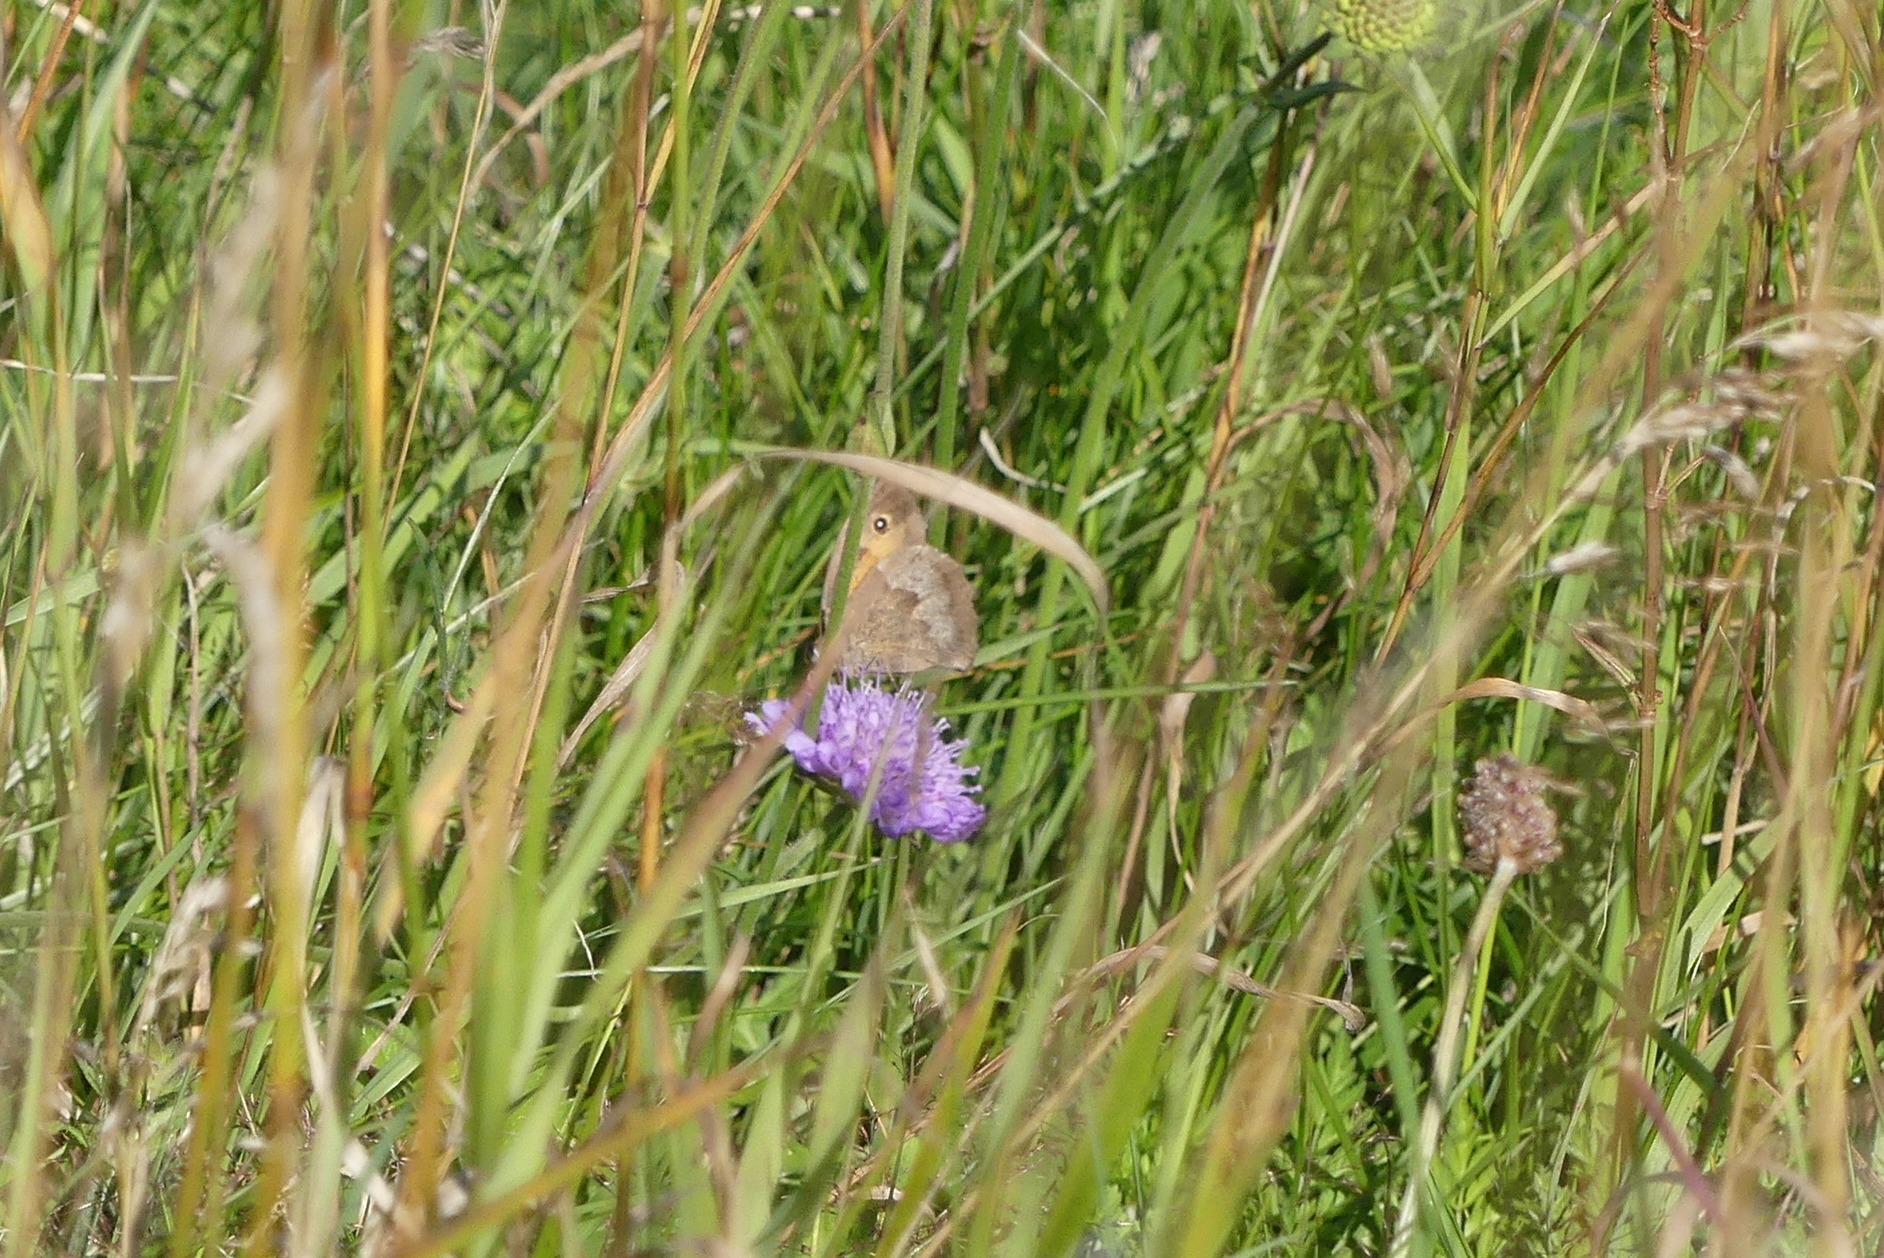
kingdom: Animalia
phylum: Arthropoda
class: Insecta
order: Lepidoptera
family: Nymphalidae
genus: Maniola
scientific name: Maniola jurtina
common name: Græsrandøje
